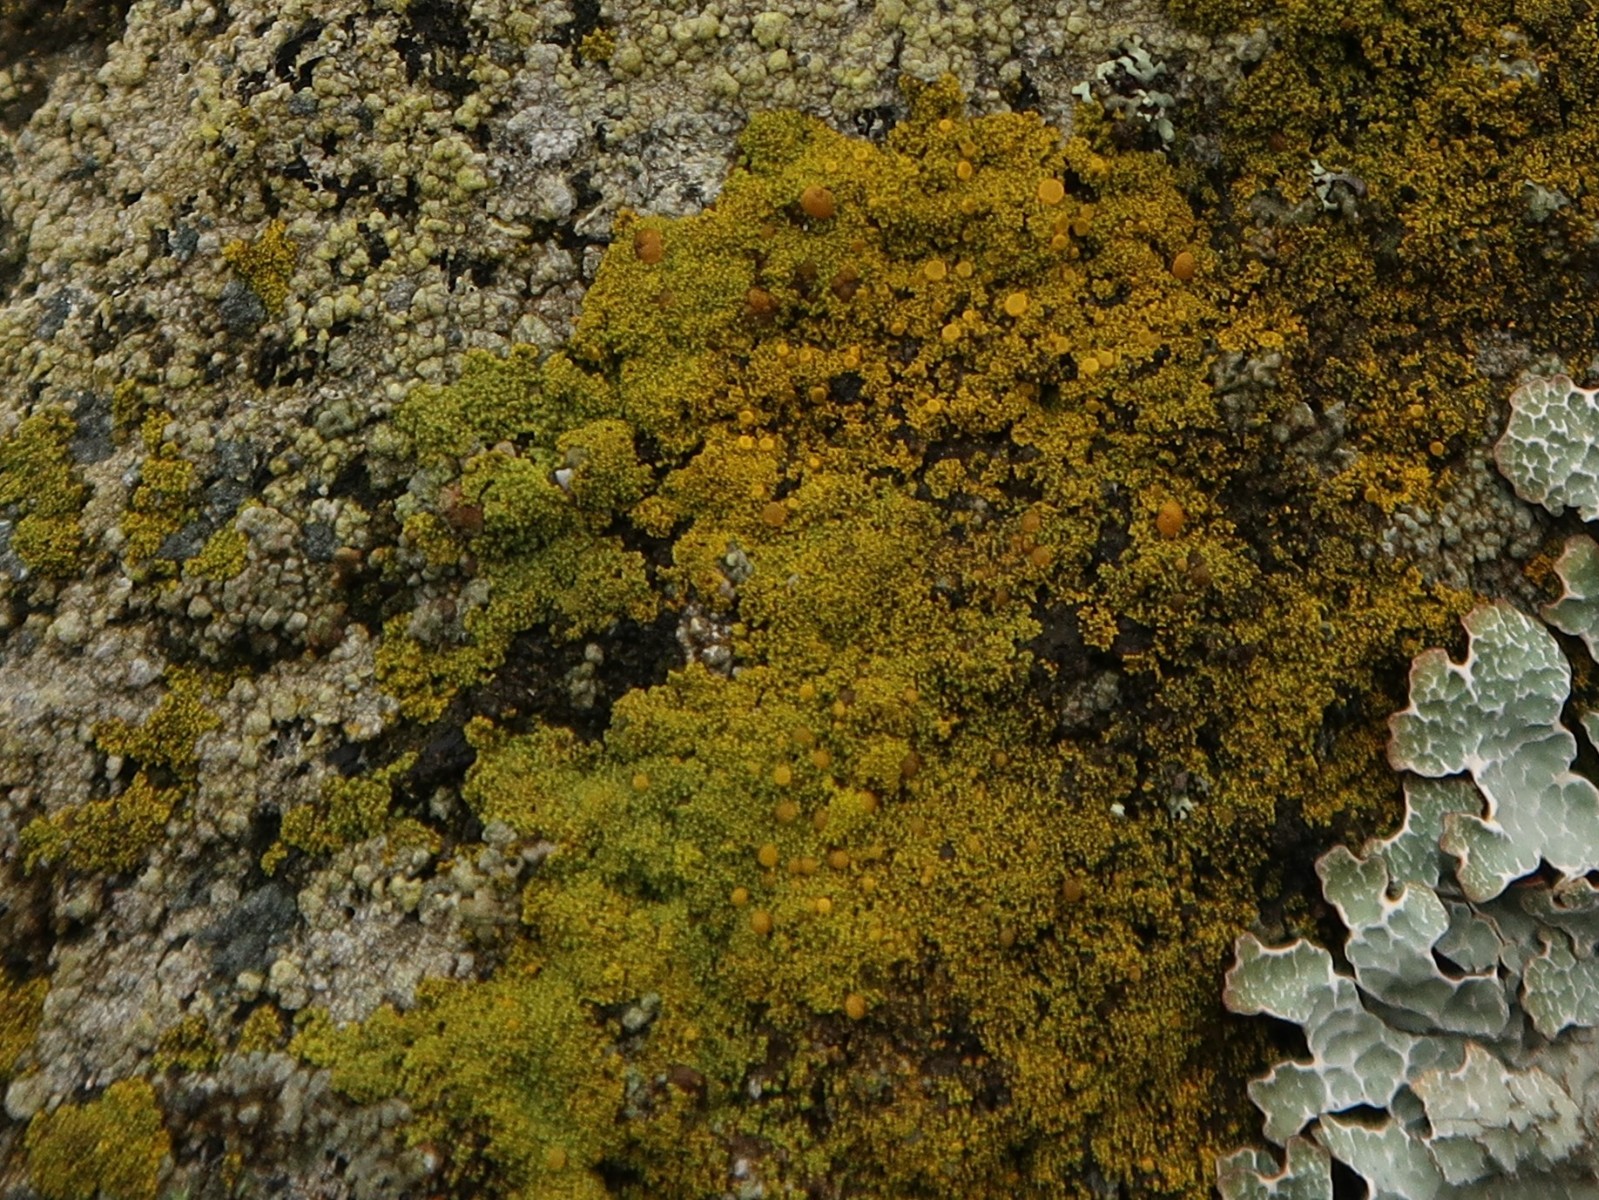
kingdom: Fungi
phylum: Ascomycota
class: Candelariomycetes
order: Candelariales
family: Candelariaceae
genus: Candelariella
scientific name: Candelariella vitellina
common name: almindelig æggeblommelav
